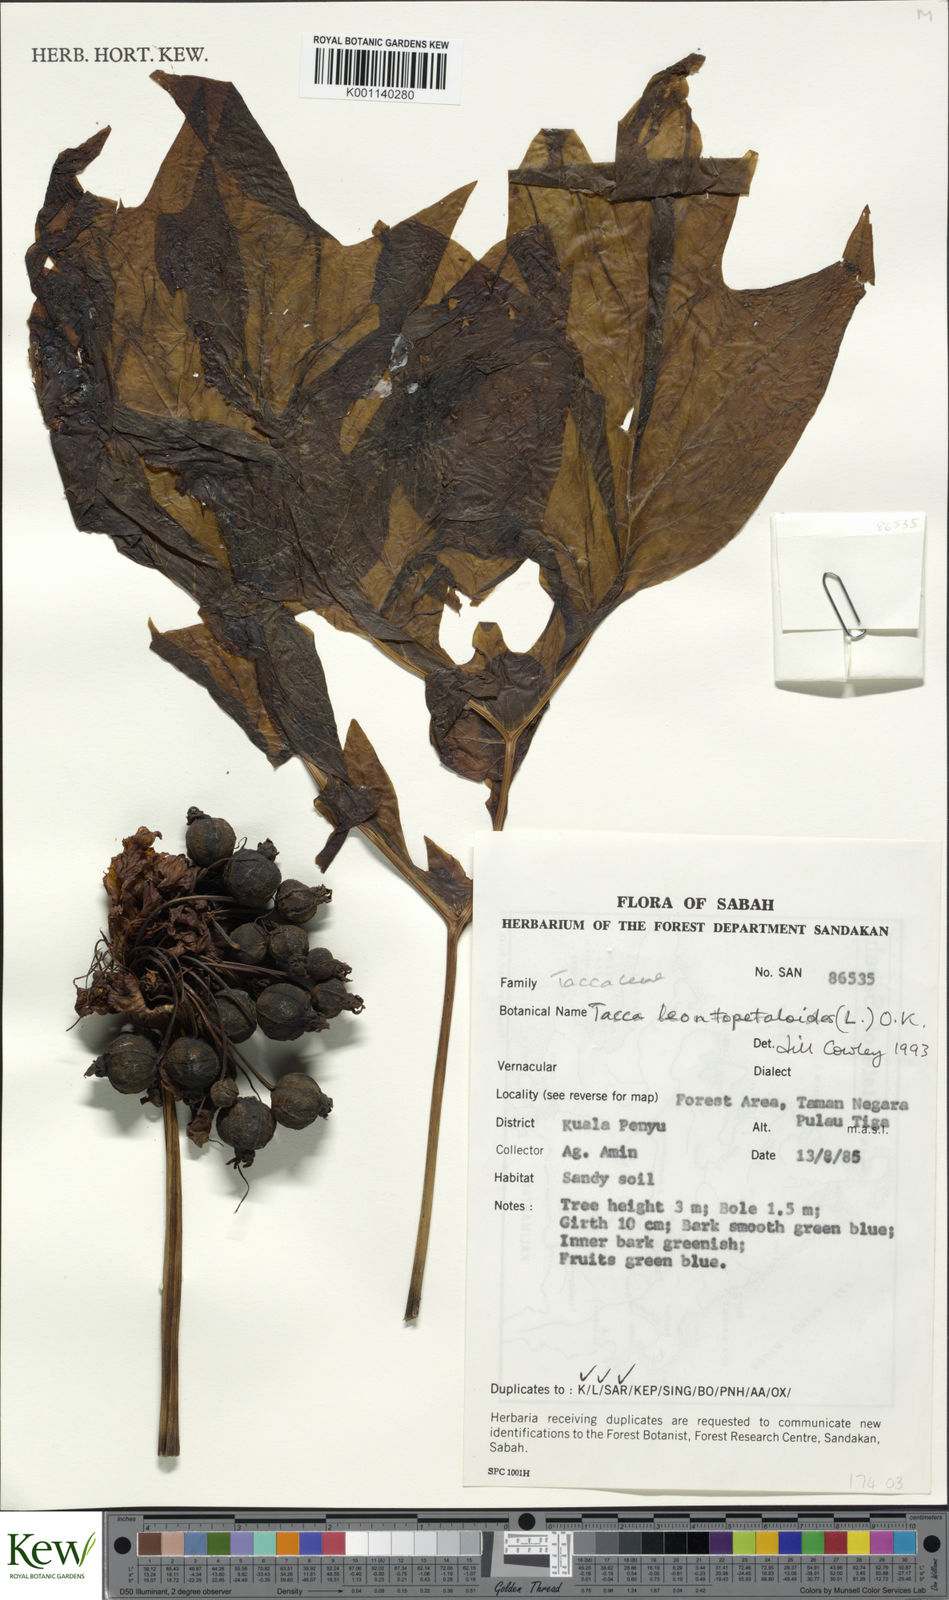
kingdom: Plantae
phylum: Tracheophyta
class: Liliopsida
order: Dioscoreales
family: Dioscoreaceae
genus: Tacca
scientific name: Tacca leontopetaloides
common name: Arrowroot
